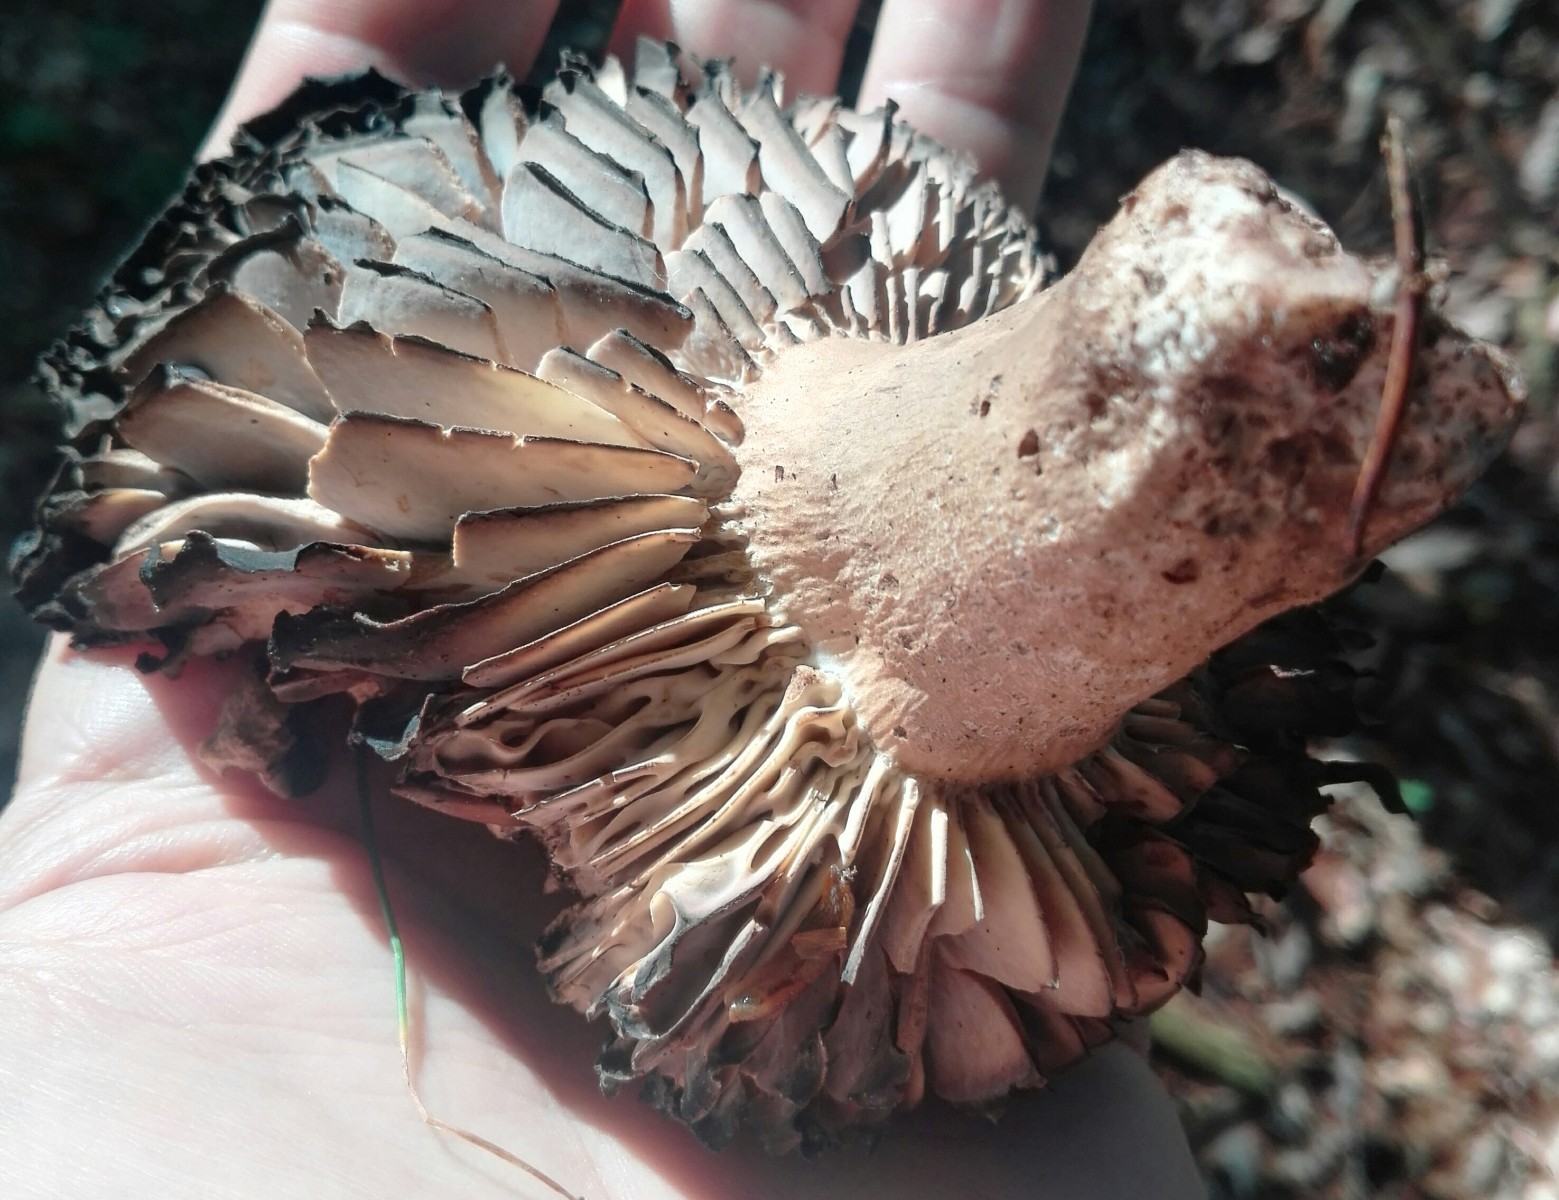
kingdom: Fungi
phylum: Basidiomycota
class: Agaricomycetes
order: Russulales
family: Russulaceae
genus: Russula
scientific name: Russula adusta
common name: sværtende skørhat
